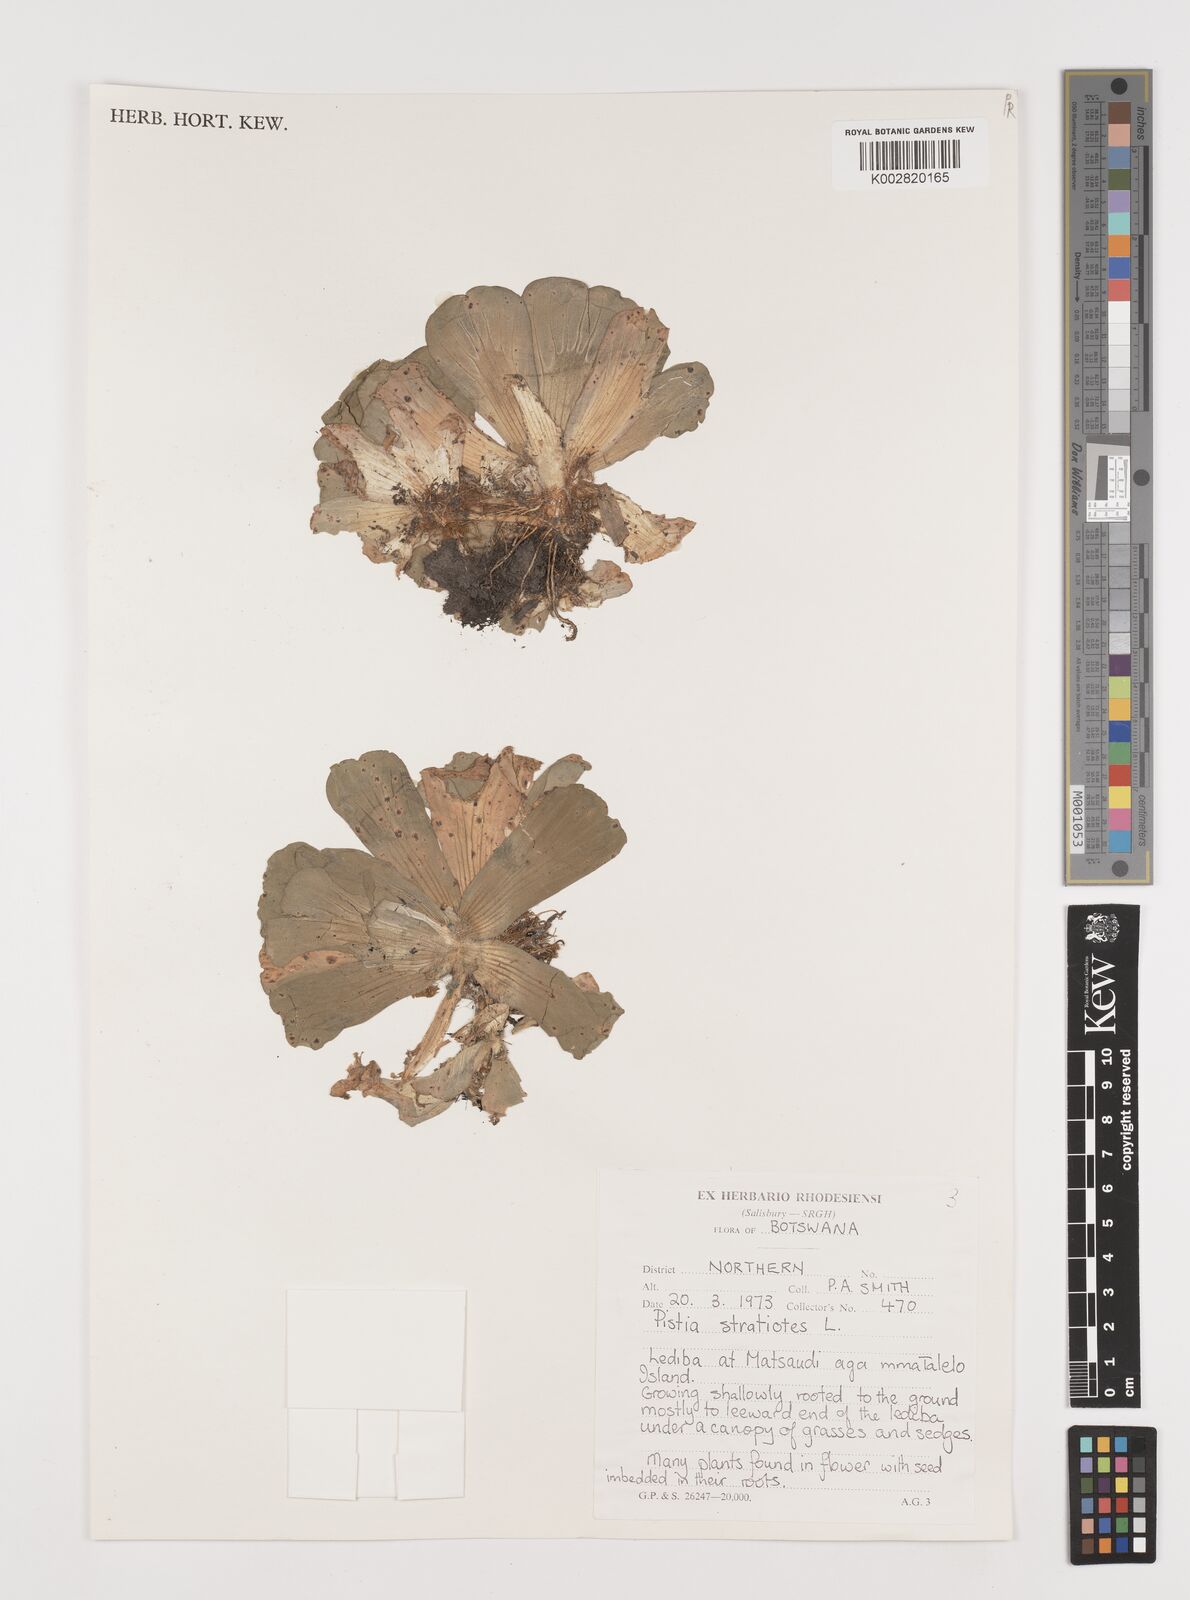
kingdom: Plantae
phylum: Tracheophyta
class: Liliopsida
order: Alismatales
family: Araceae
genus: Pistia
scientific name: Pistia stratiotes
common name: Water lettuce
